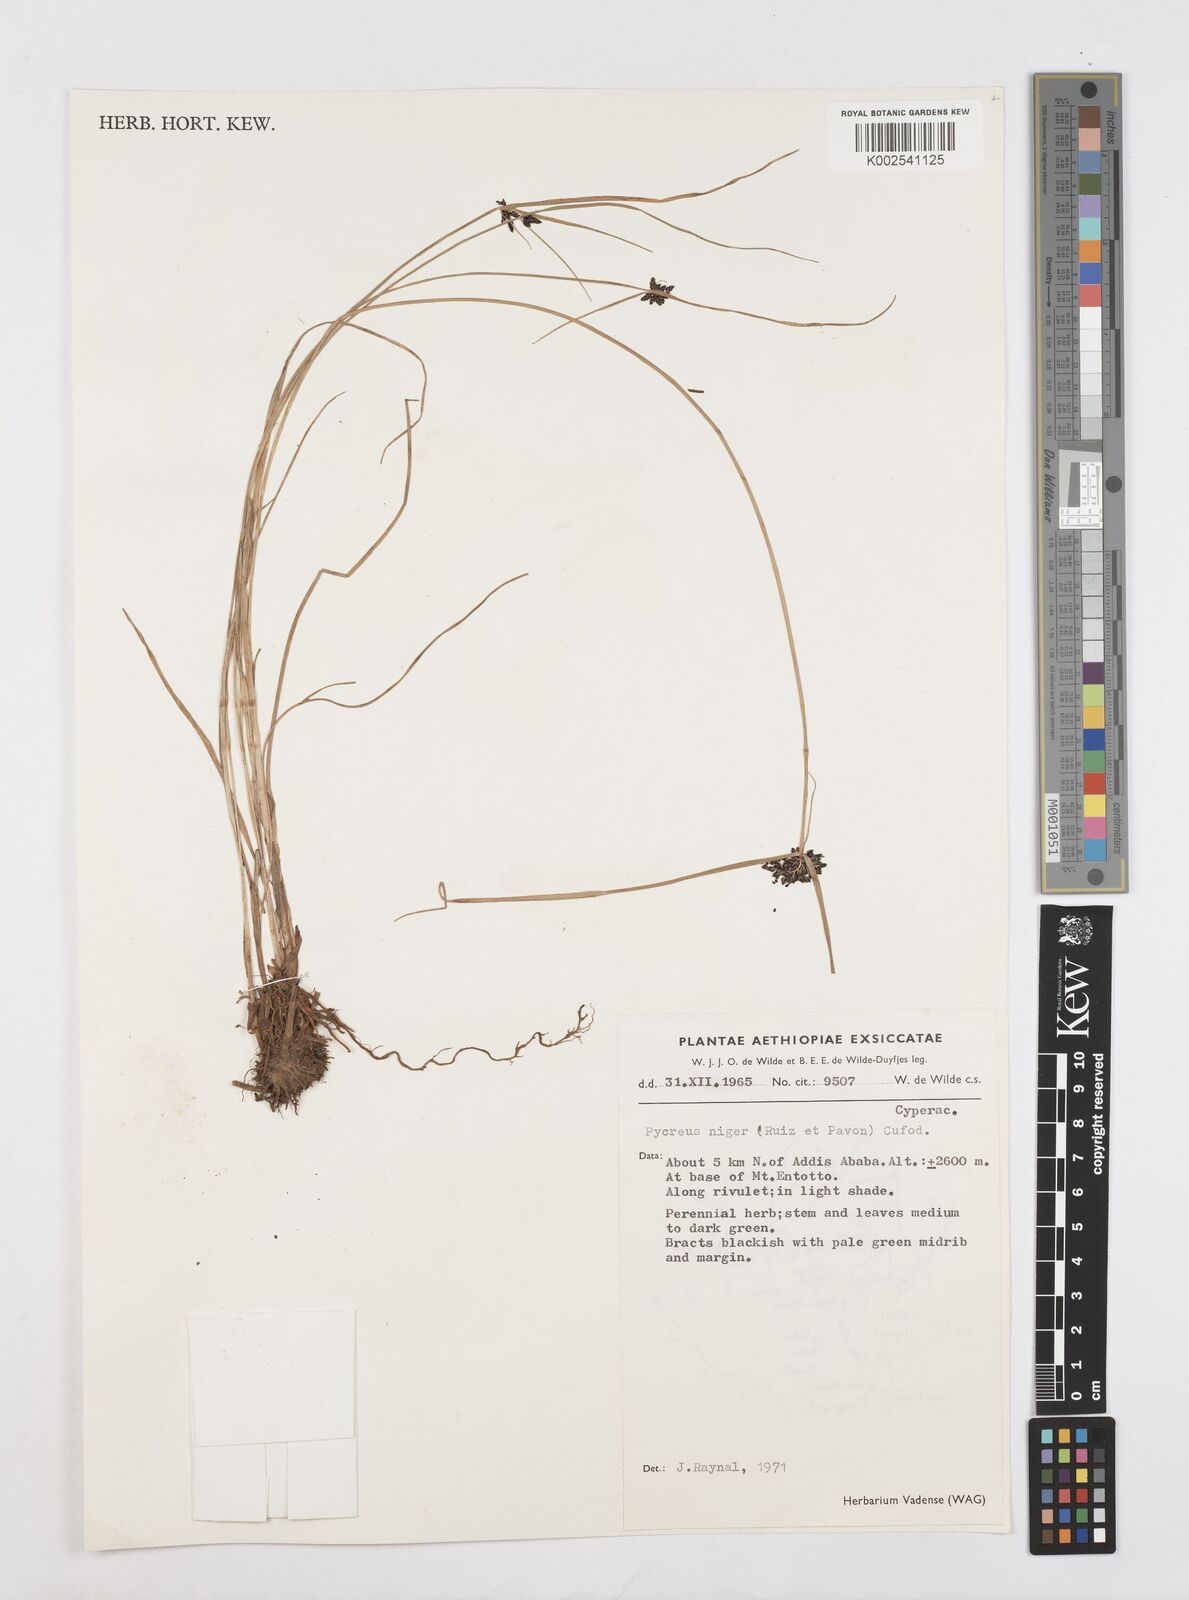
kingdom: Plantae
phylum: Tracheophyta
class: Liliopsida
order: Poales
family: Cyperaceae
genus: Cyperus
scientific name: Cyperus elegantulus
